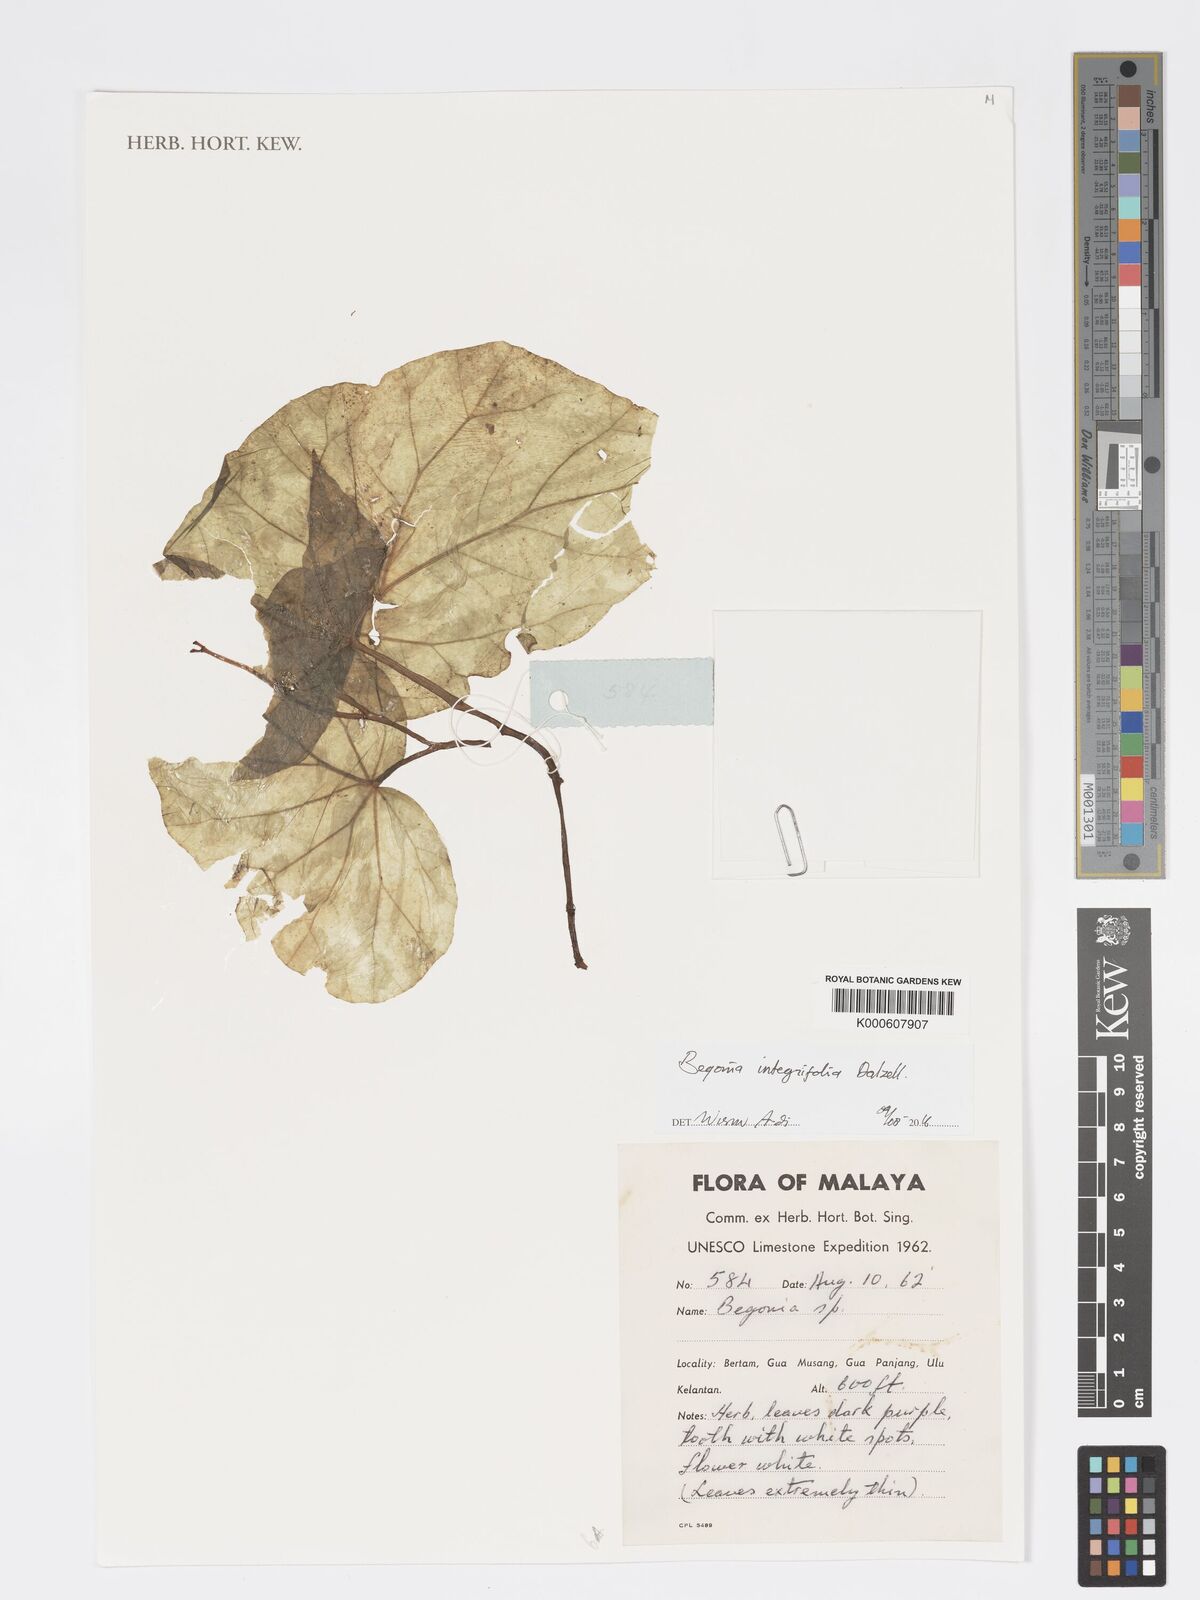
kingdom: Plantae
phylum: Tracheophyta
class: Magnoliopsida
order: Cucurbitales
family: Begoniaceae
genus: Begonia
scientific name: Begonia integrifolia
